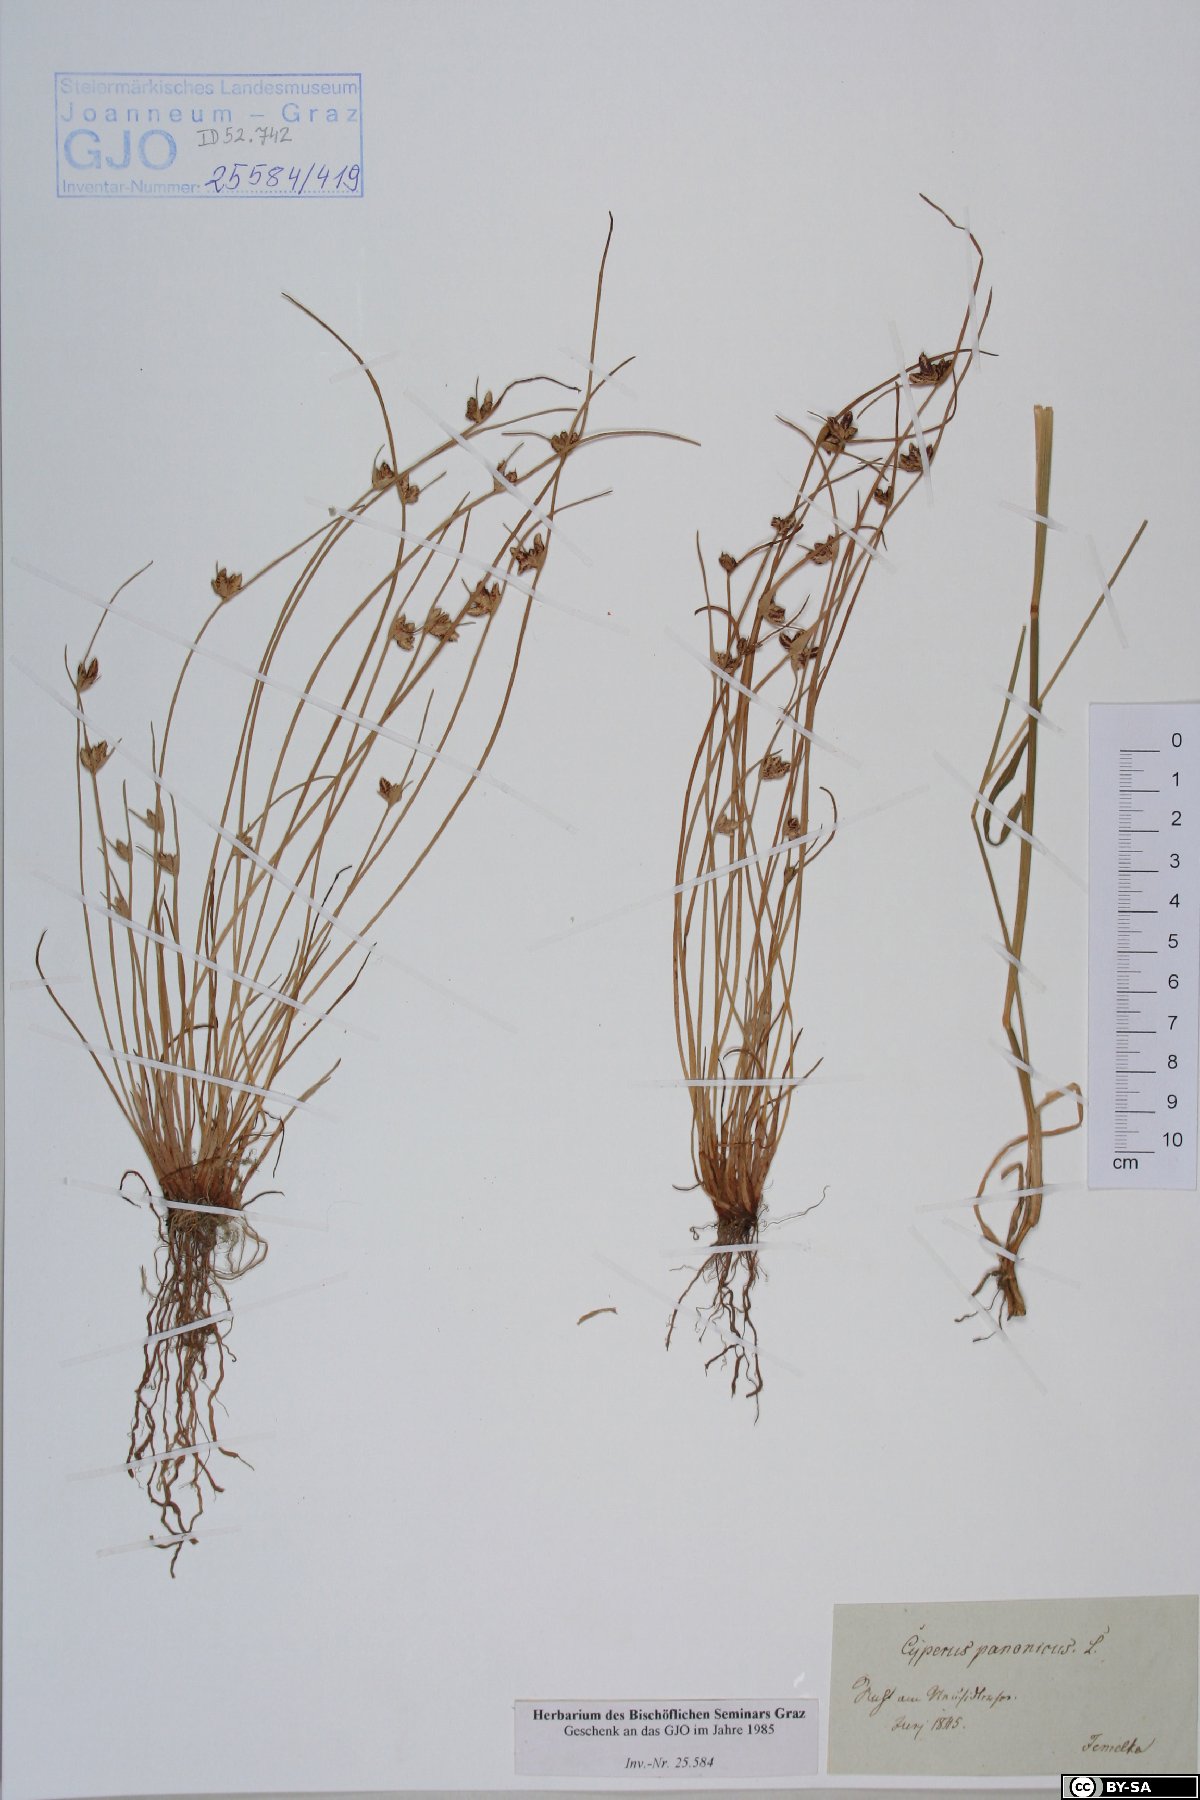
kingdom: Plantae
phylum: Tracheophyta
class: Liliopsida
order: Poales
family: Cyperaceae
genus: Cyperus
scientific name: Cyperus pannonicus
